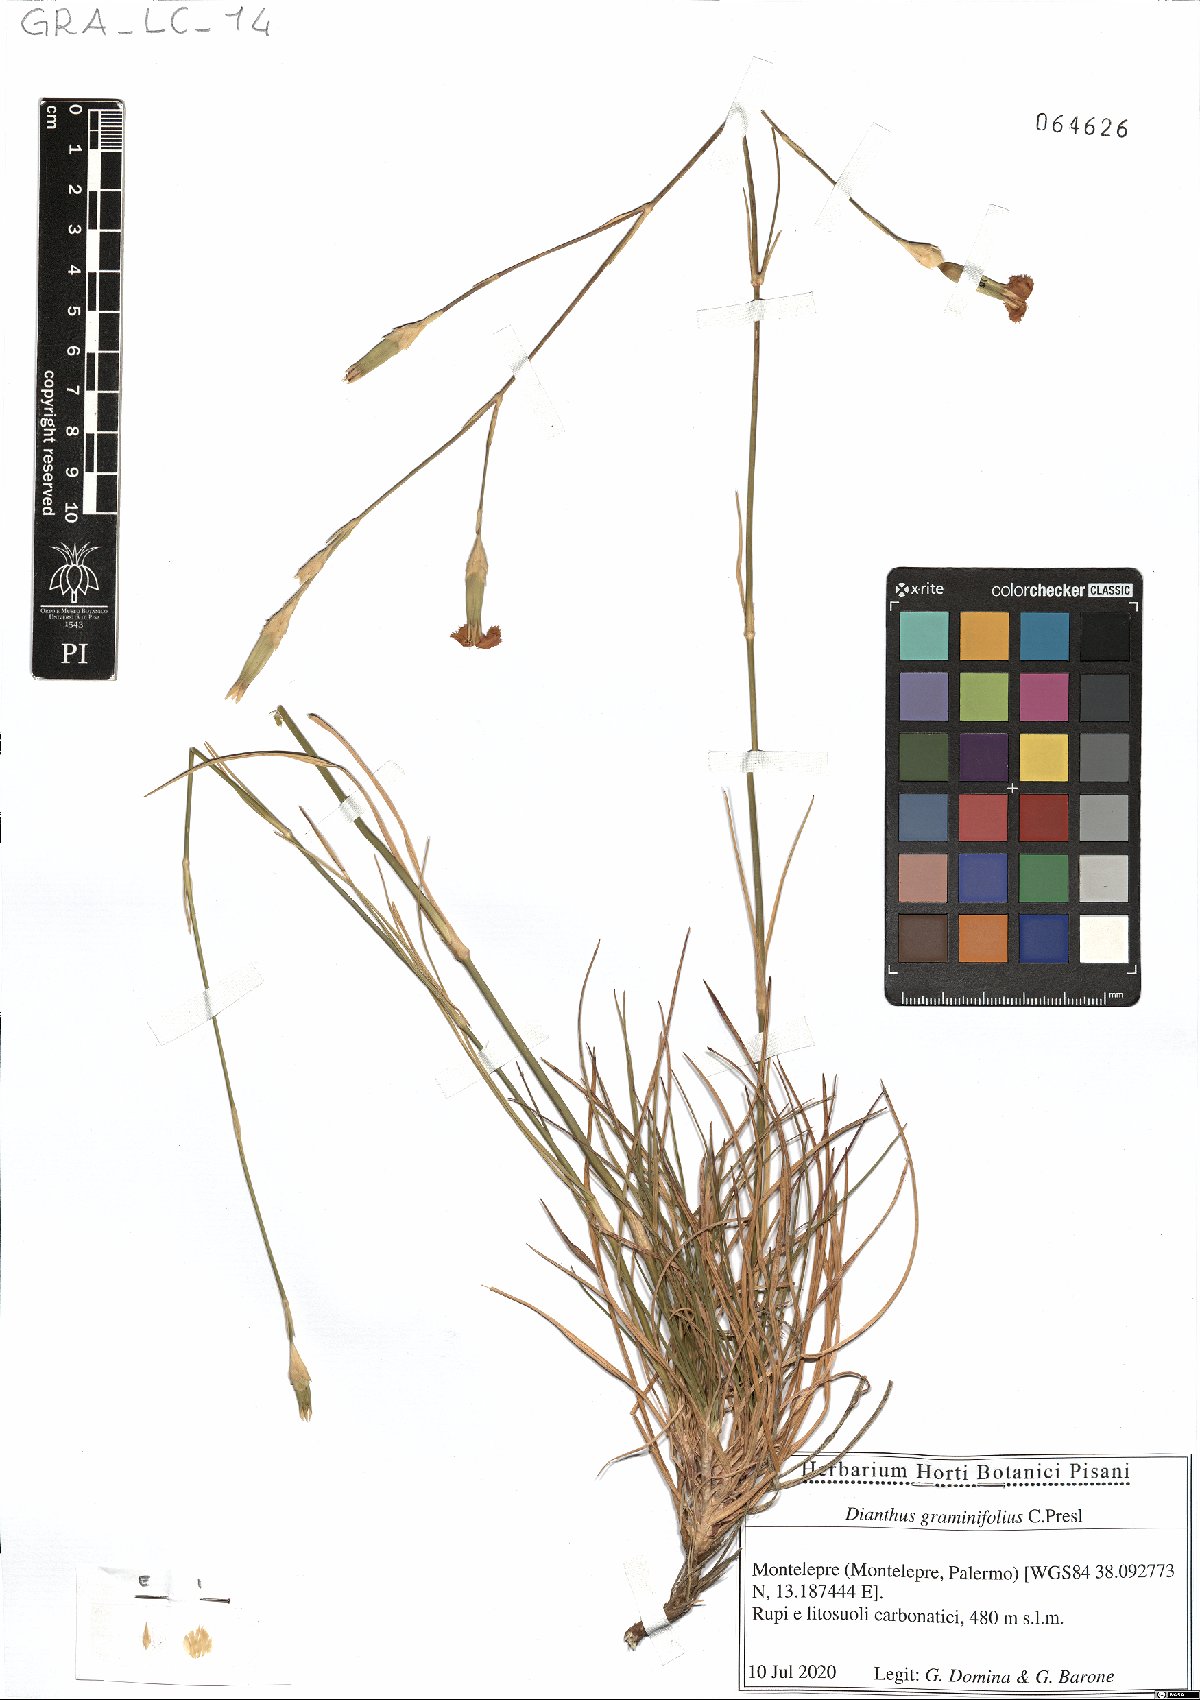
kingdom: Plantae
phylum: Tracheophyta
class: Magnoliopsida
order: Caryophyllales
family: Caryophyllaceae
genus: Dianthus
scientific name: Dianthus graminifolius
